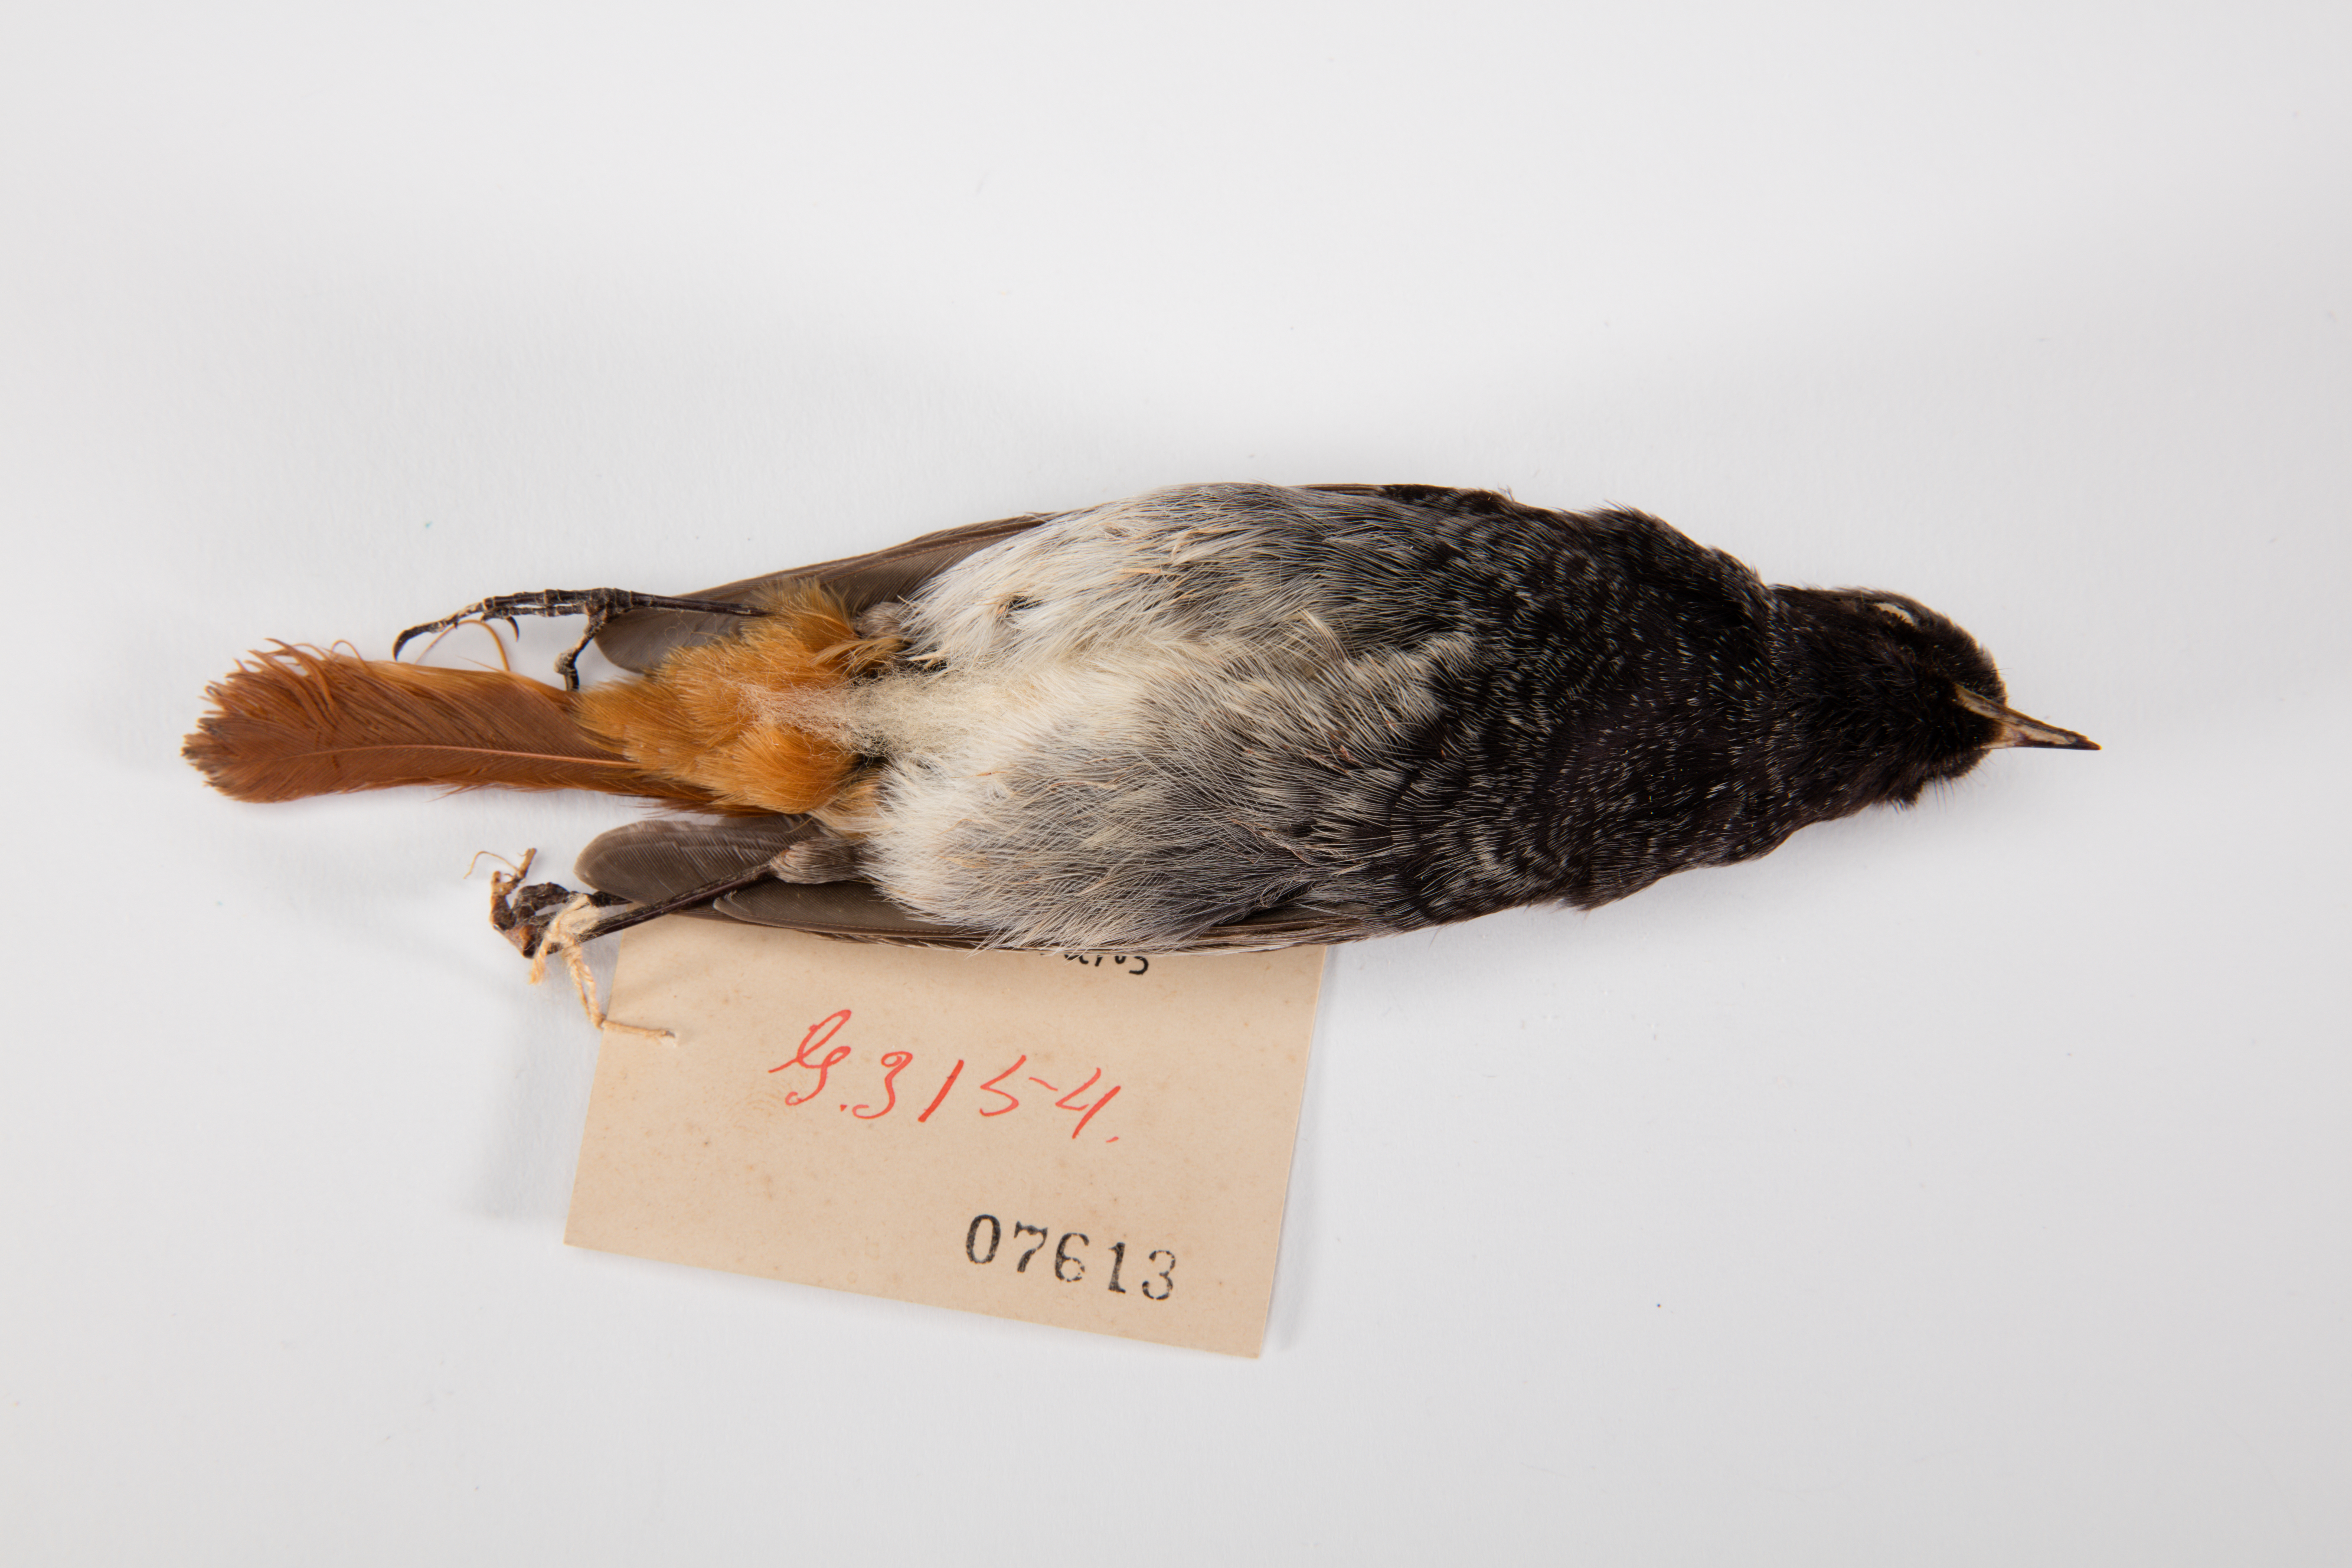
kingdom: Animalia
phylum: Chordata
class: Aves
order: Passeriformes
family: Muscicapidae
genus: Phoenicurus
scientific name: Phoenicurus ochruros
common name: Black redstart
